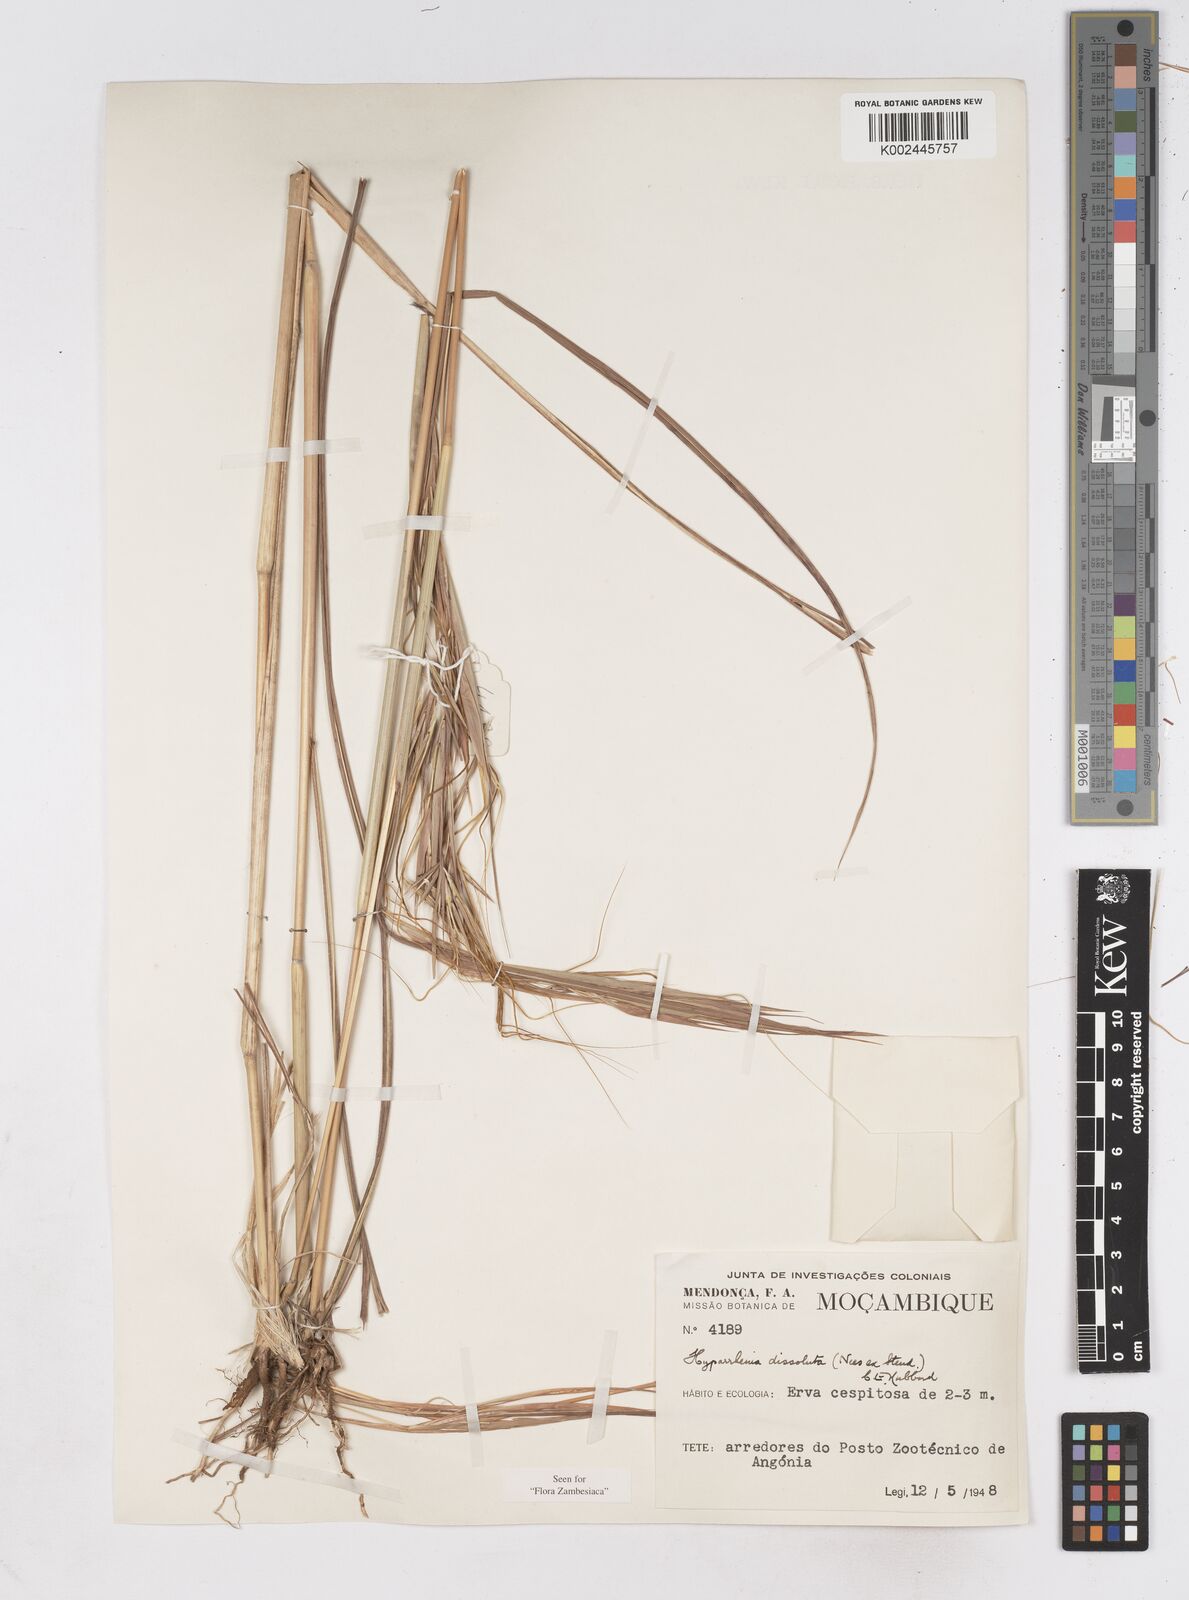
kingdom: Plantae
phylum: Tracheophyta
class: Liliopsida
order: Poales
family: Poaceae
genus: Hyperthelia
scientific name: Hyperthelia dissoluta
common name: Yellow thatching grass
